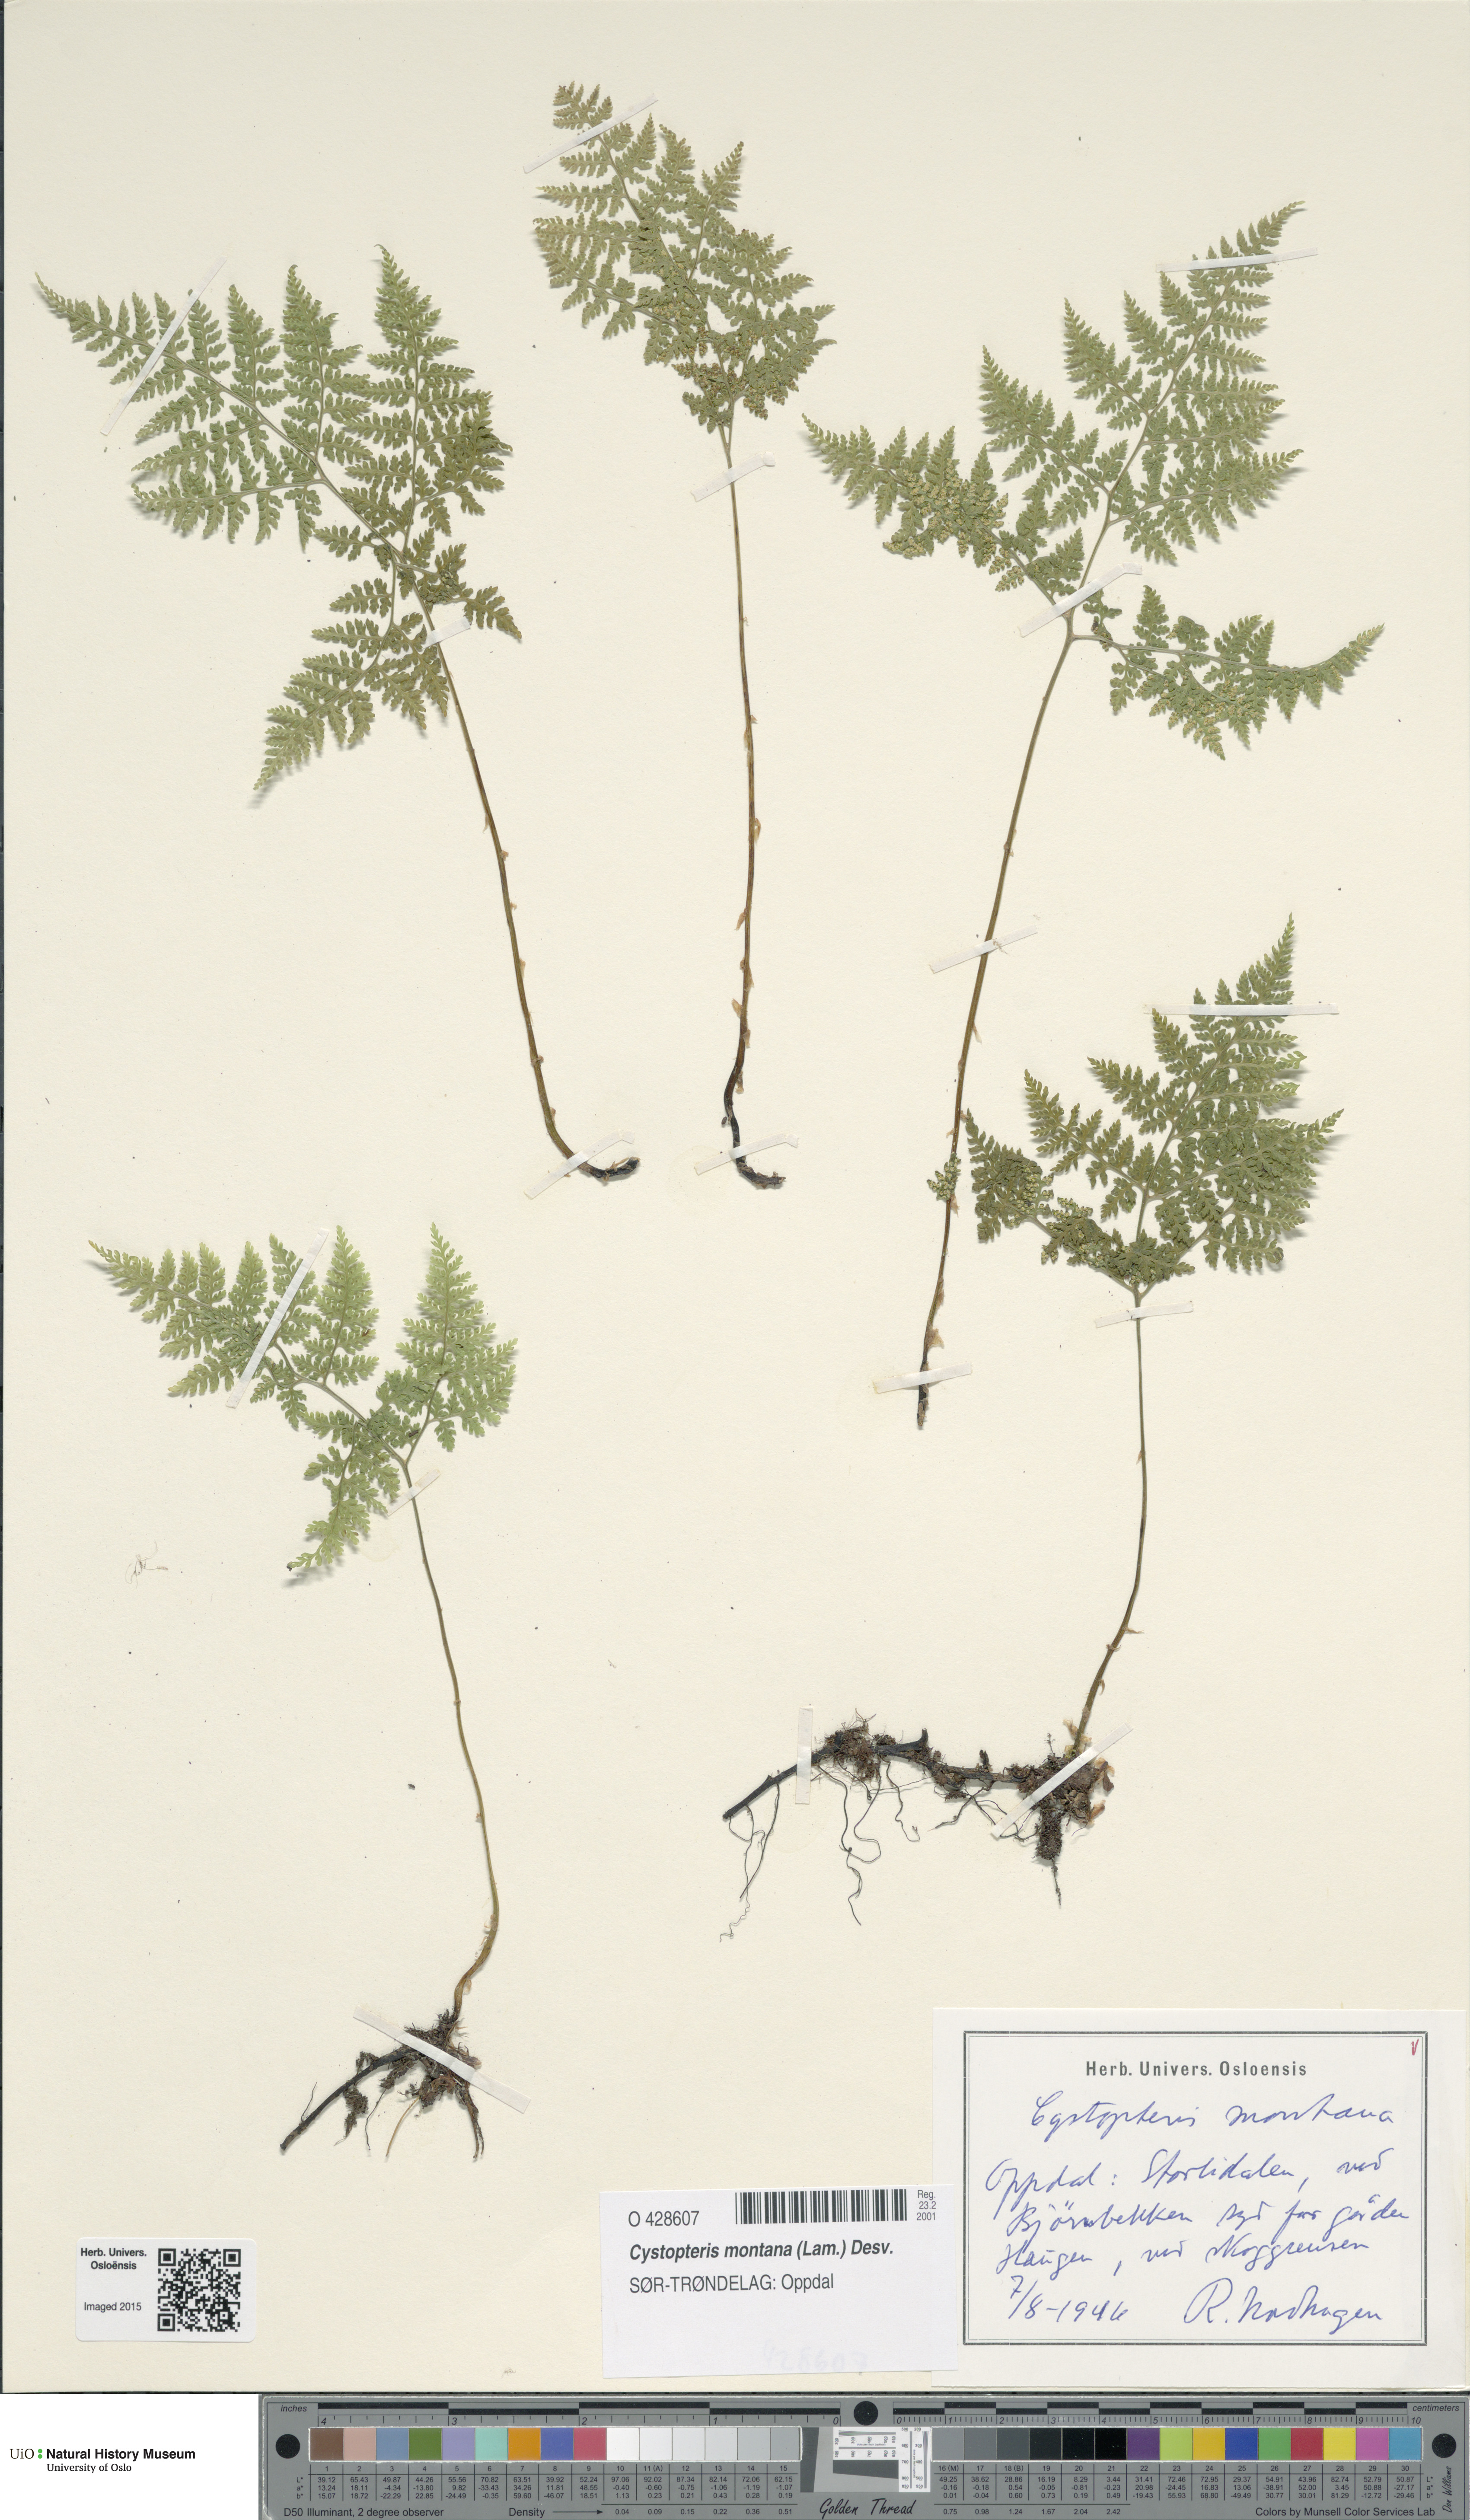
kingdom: Plantae
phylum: Tracheophyta
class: Polypodiopsida
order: Polypodiales
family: Cystopteridaceae
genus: Cystopteris
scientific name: Cystopteris montana
